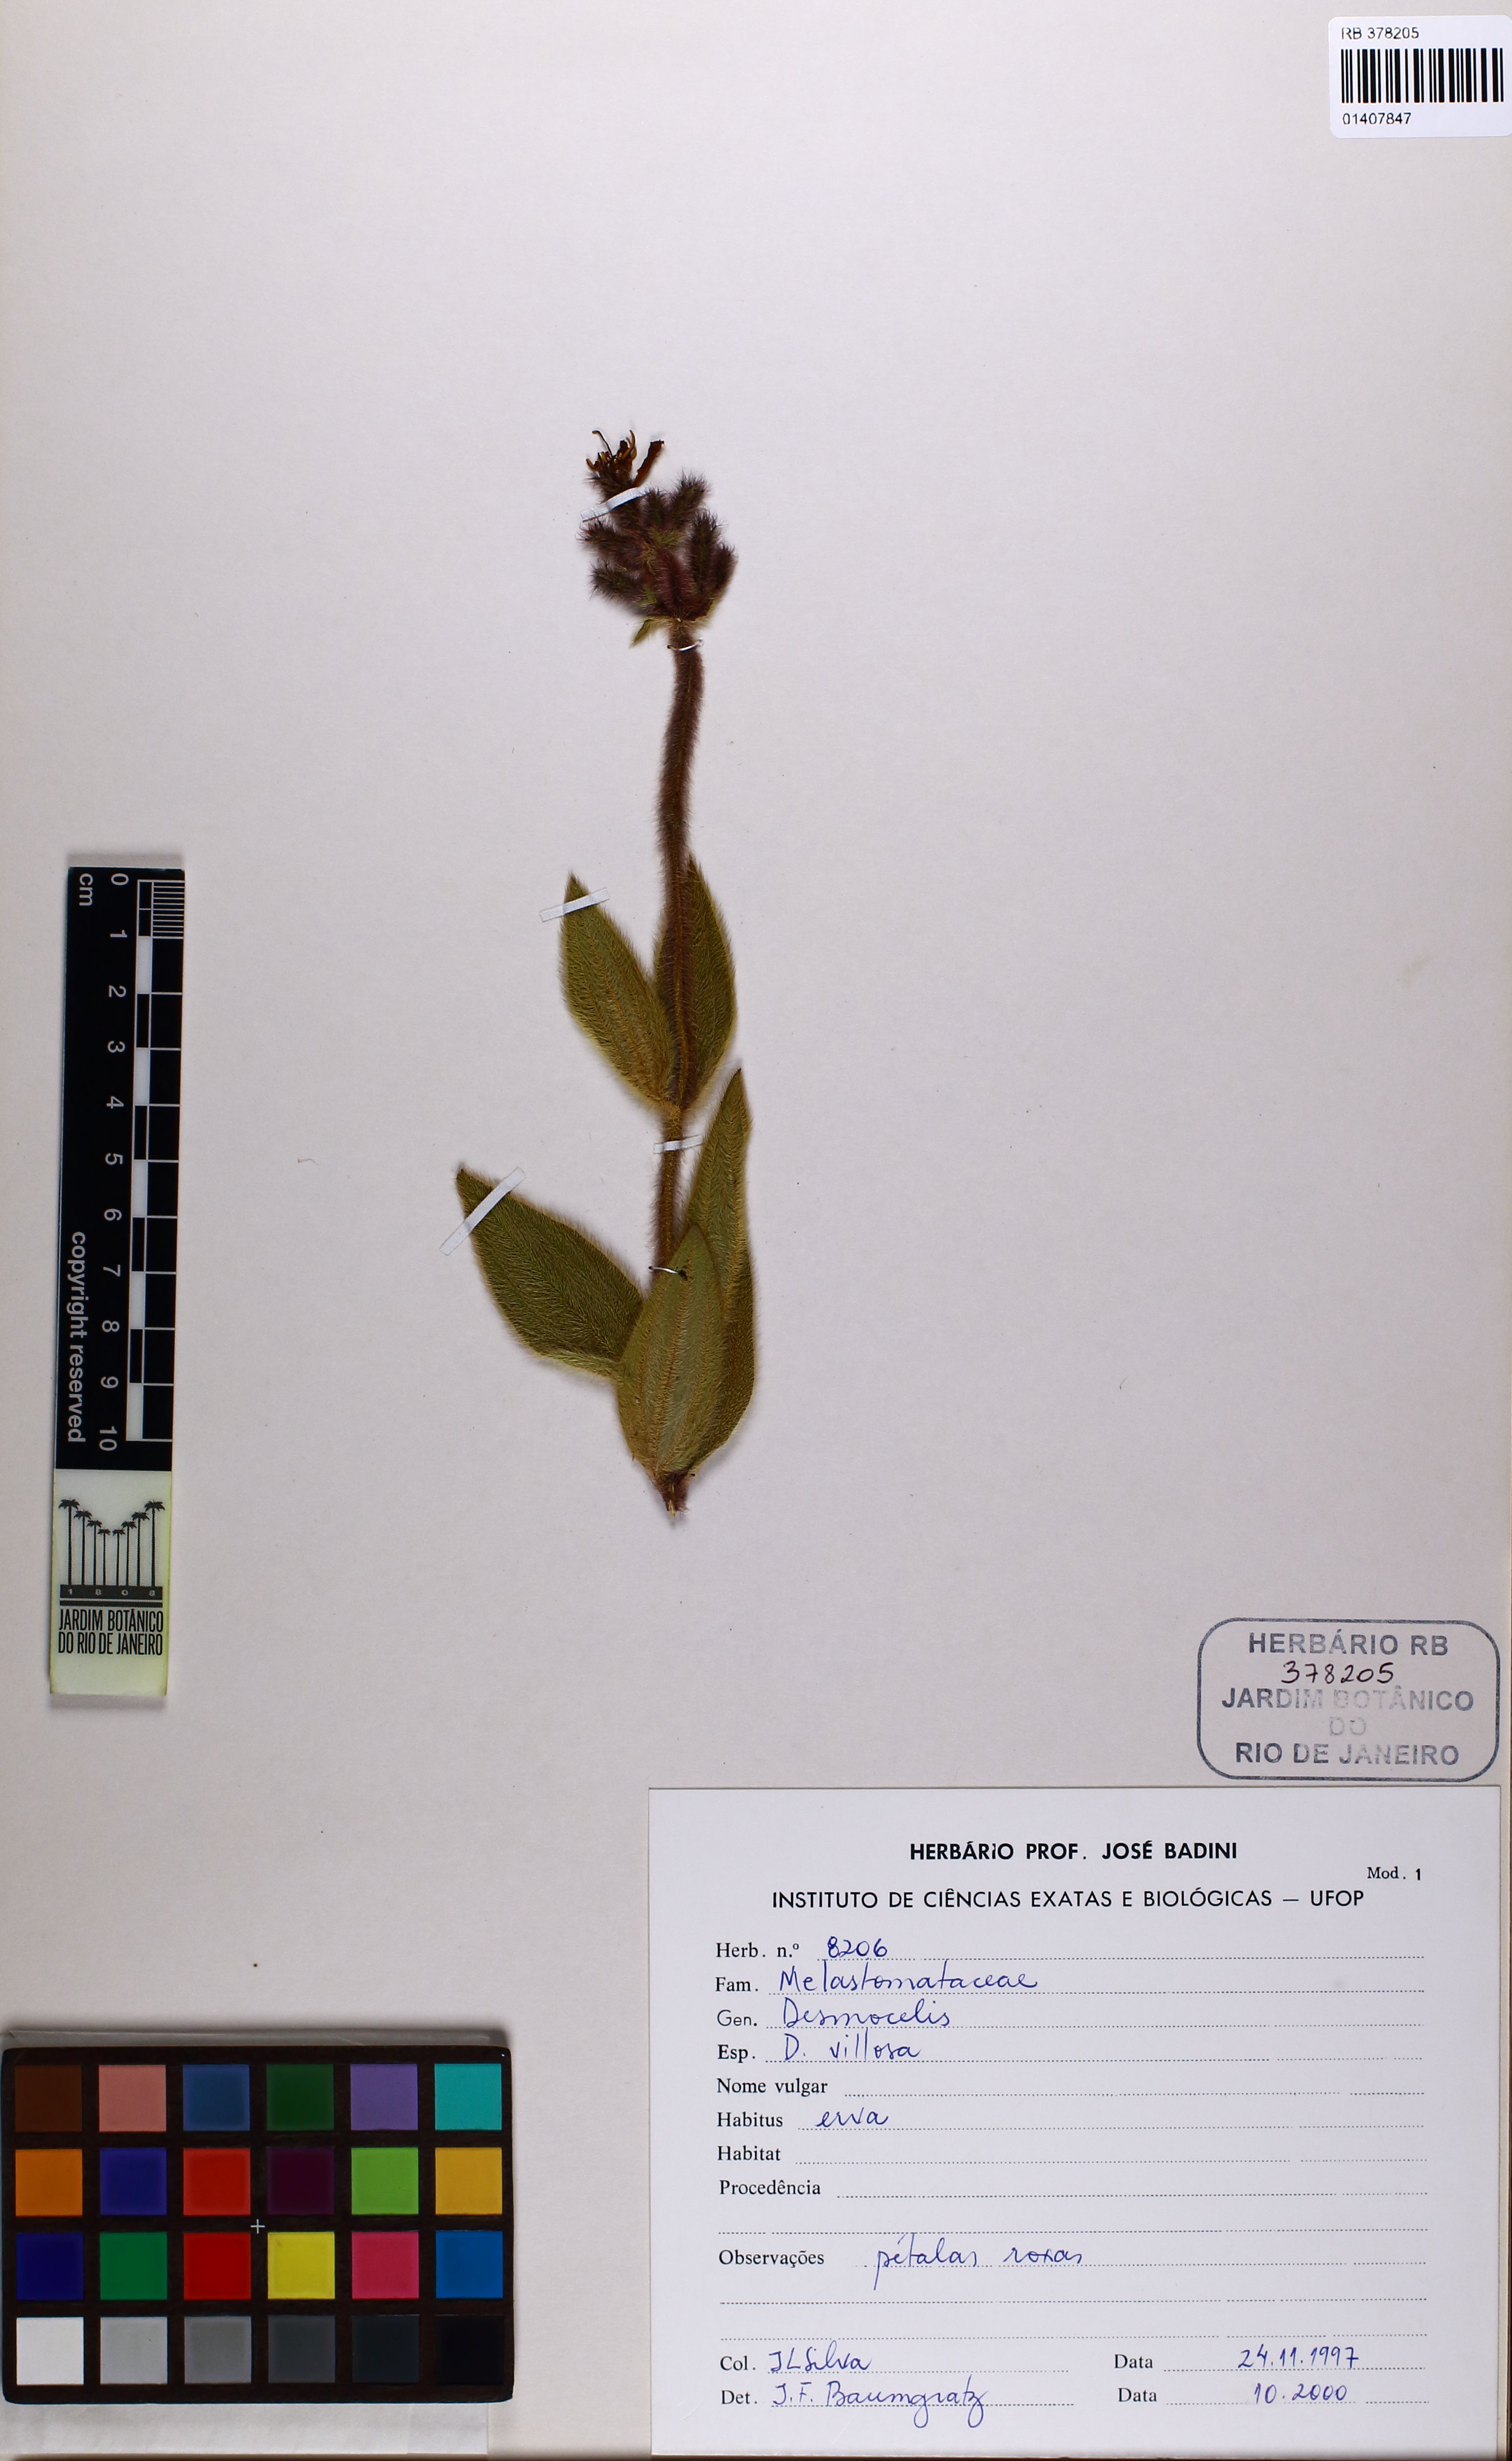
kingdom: Plantae
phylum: Tracheophyta
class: Magnoliopsida
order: Myrtales
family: Melastomataceae
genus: Desmoscelis
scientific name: Desmoscelis villosa
